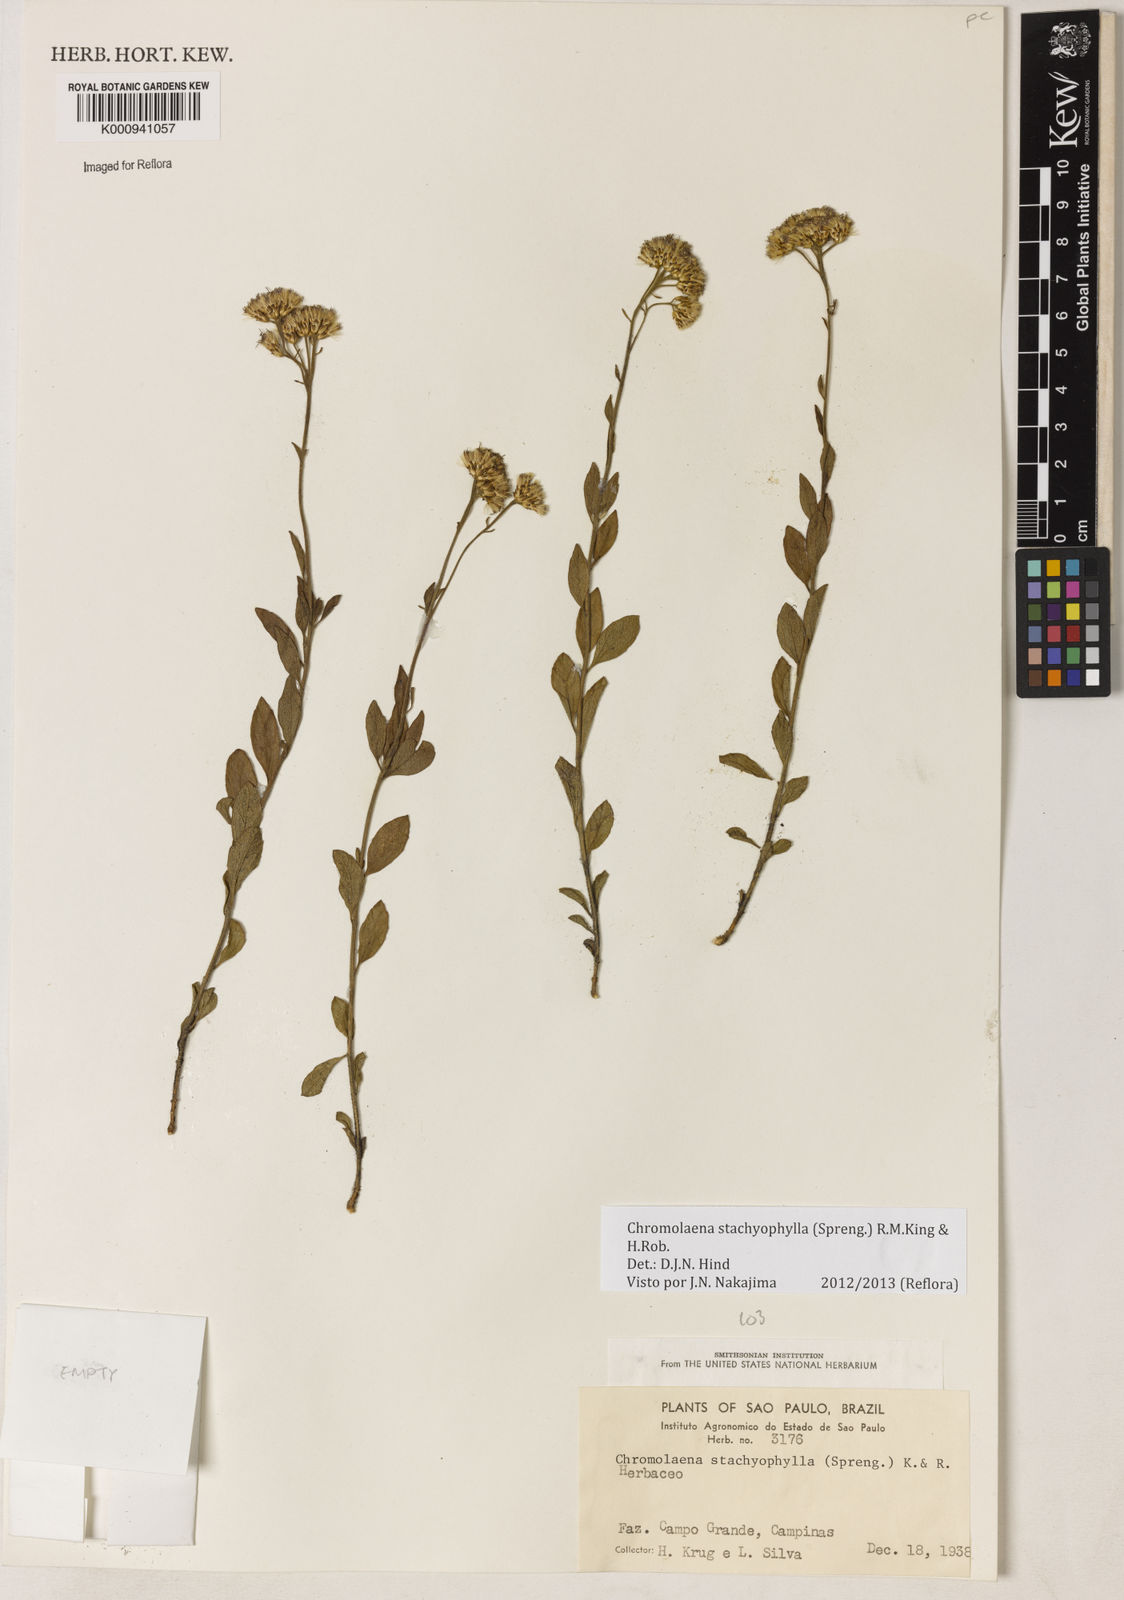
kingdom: Plantae
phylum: Tracheophyta
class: Magnoliopsida
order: Asterales
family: Asteraceae
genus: Chromolaena
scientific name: Chromolaena stachyophylla
